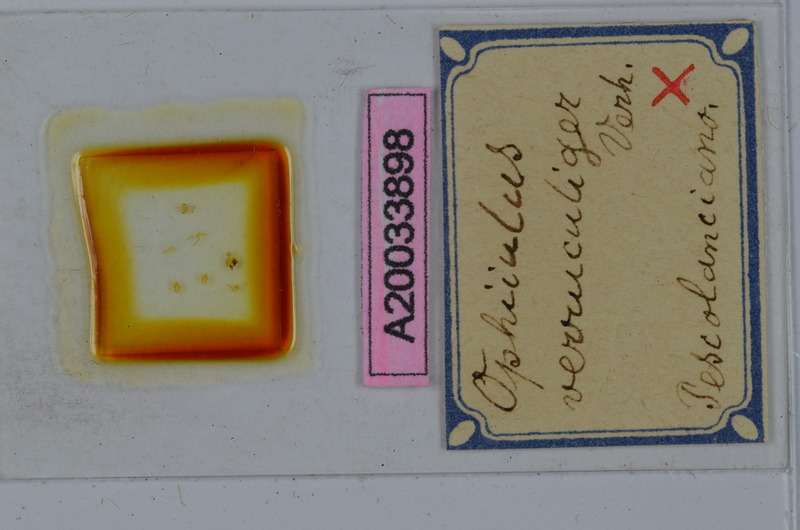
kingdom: Animalia
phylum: Arthropoda
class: Diplopoda
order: Julida
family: Julidae
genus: Ophyiulus
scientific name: Ophyiulus targionii
